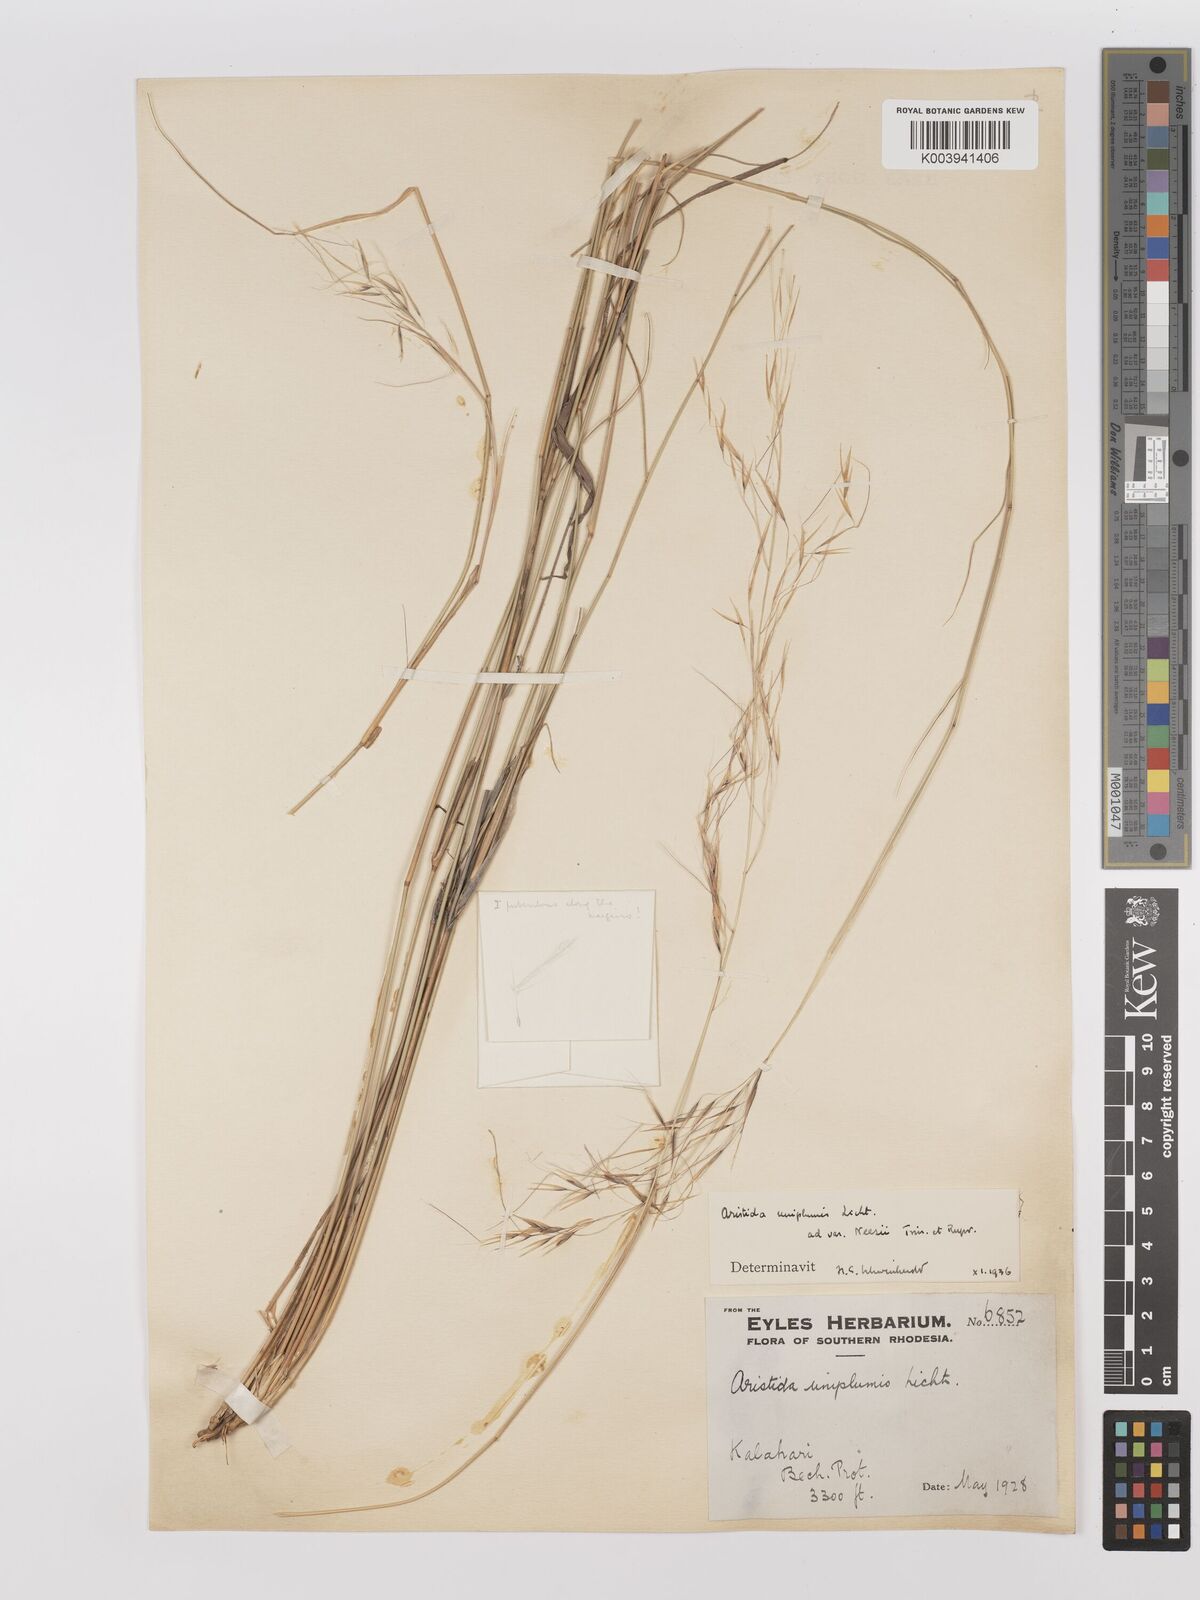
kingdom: Plantae
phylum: Tracheophyta
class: Liliopsida
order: Poales
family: Poaceae
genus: Stipagrostis
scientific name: Stipagrostis uniplumis
